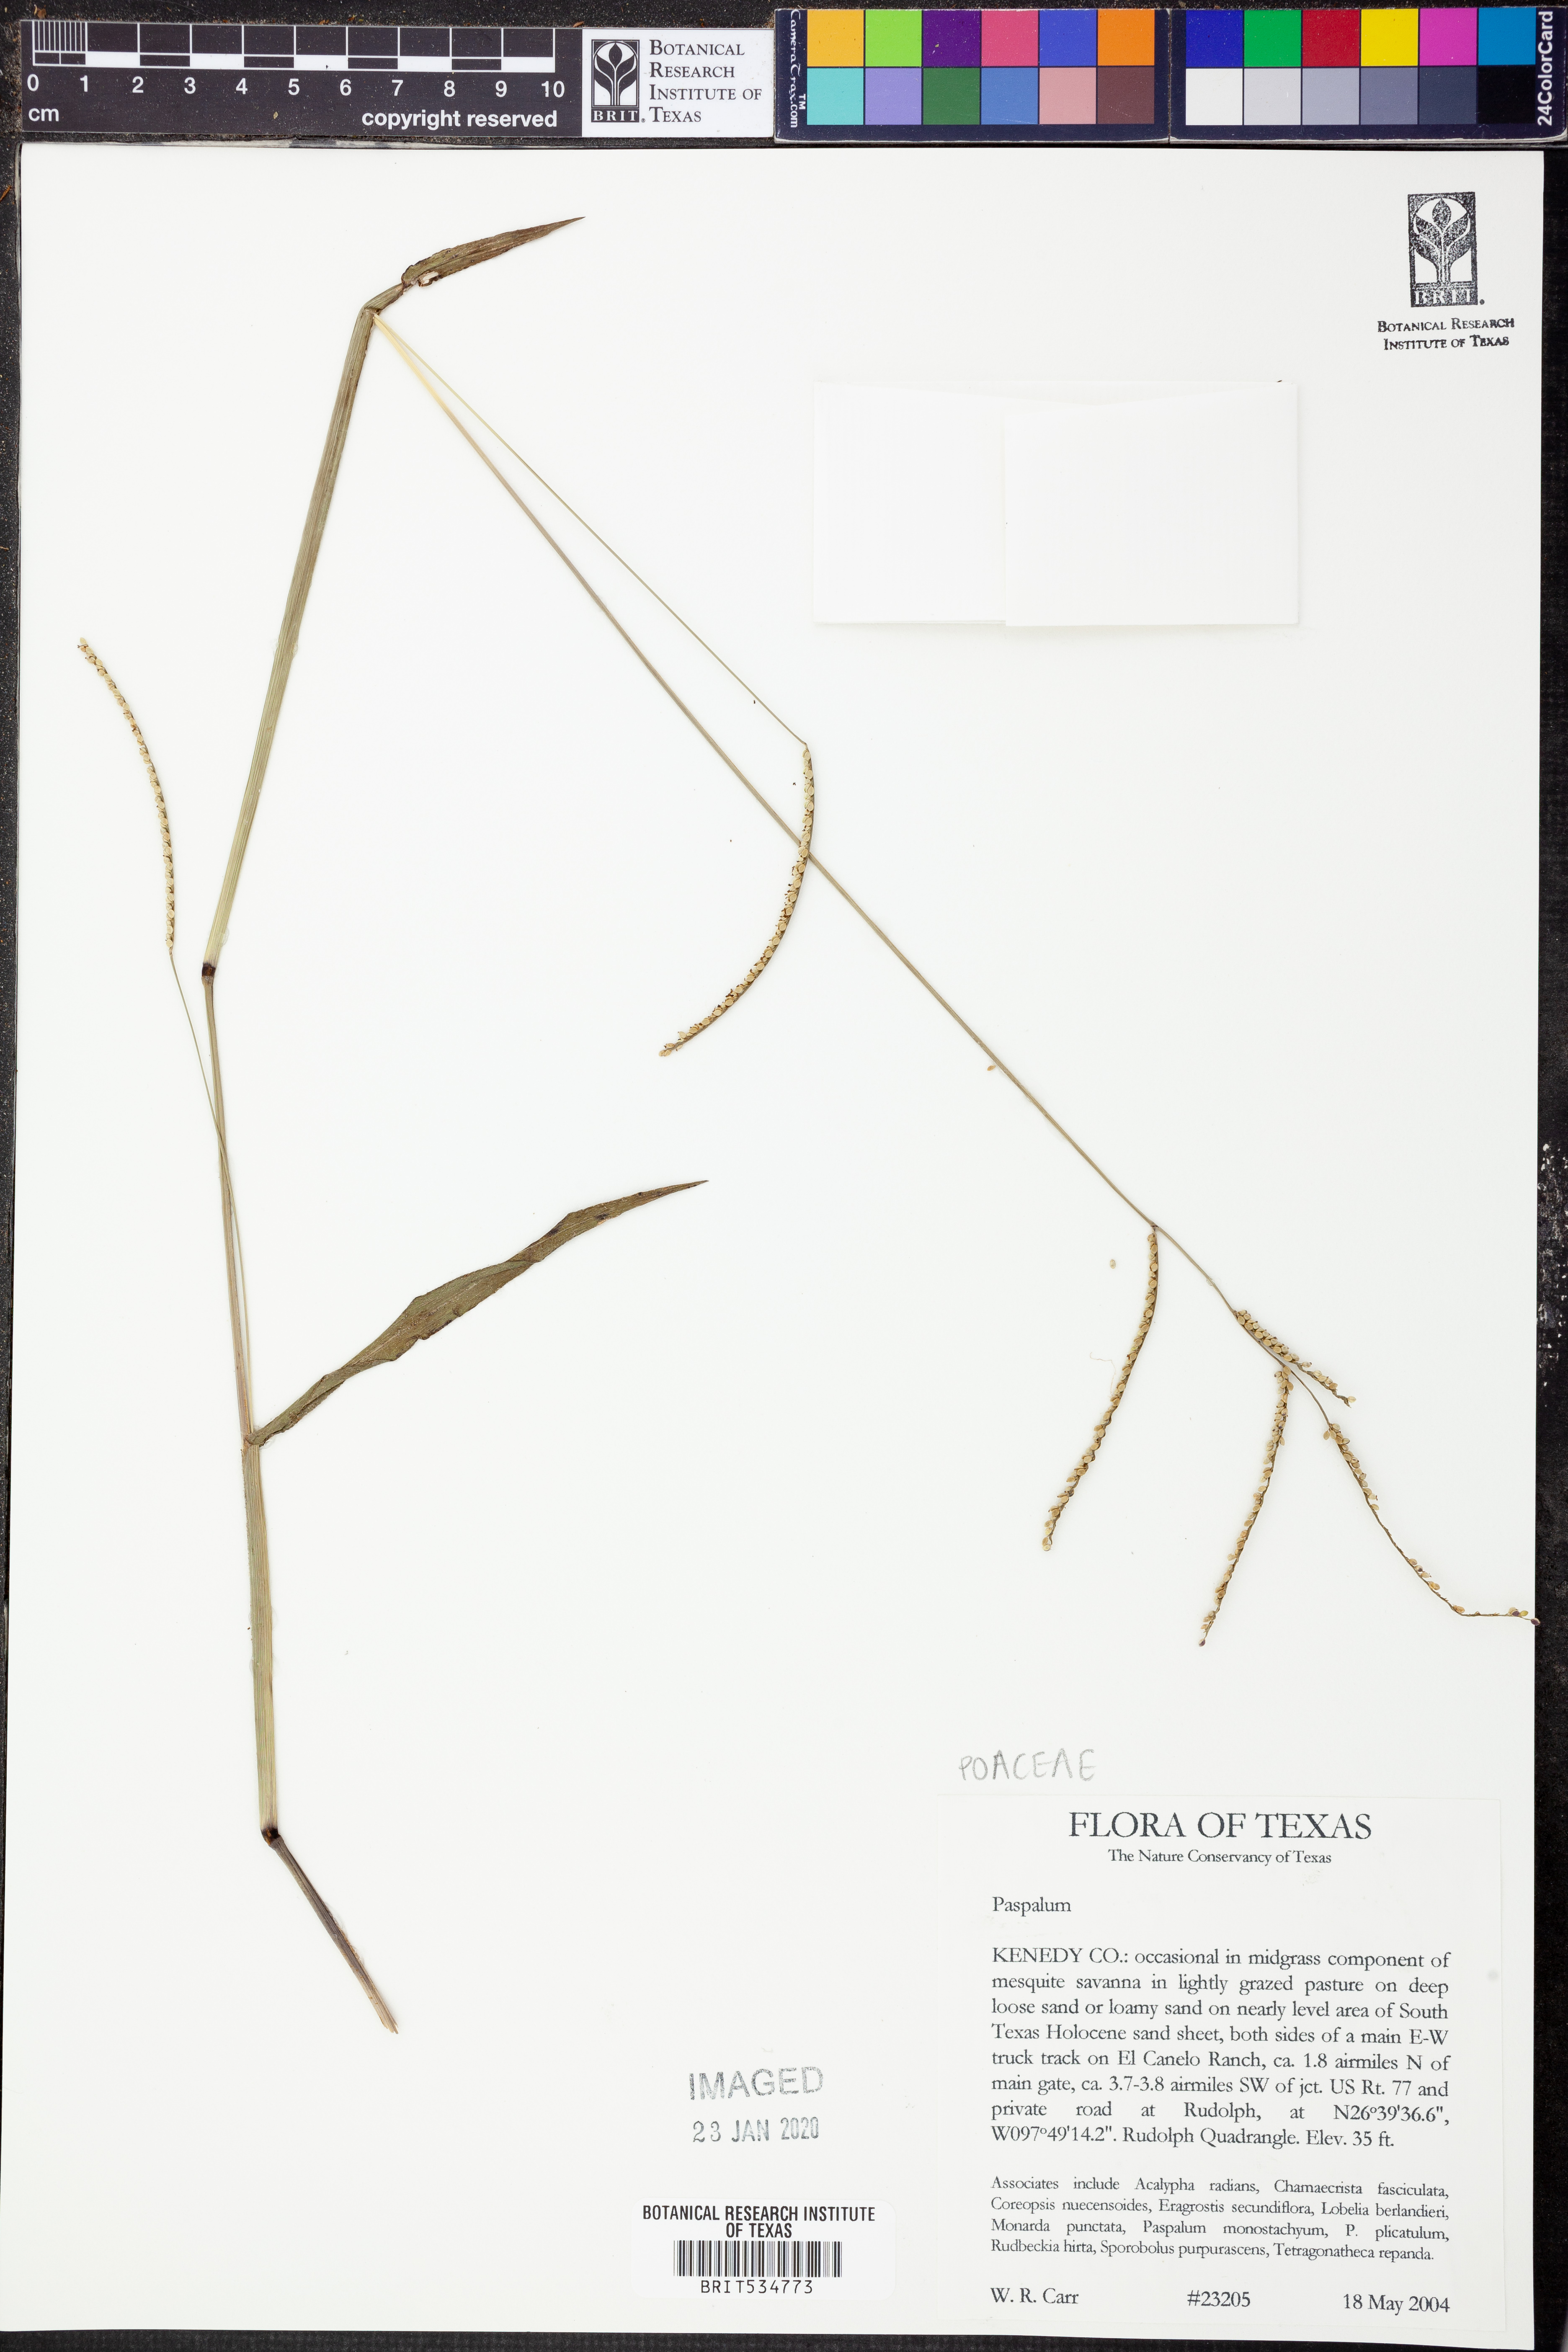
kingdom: Plantae
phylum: Tracheophyta
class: Liliopsida
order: Poales
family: Poaceae
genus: Paspalum
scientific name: Paspalum
